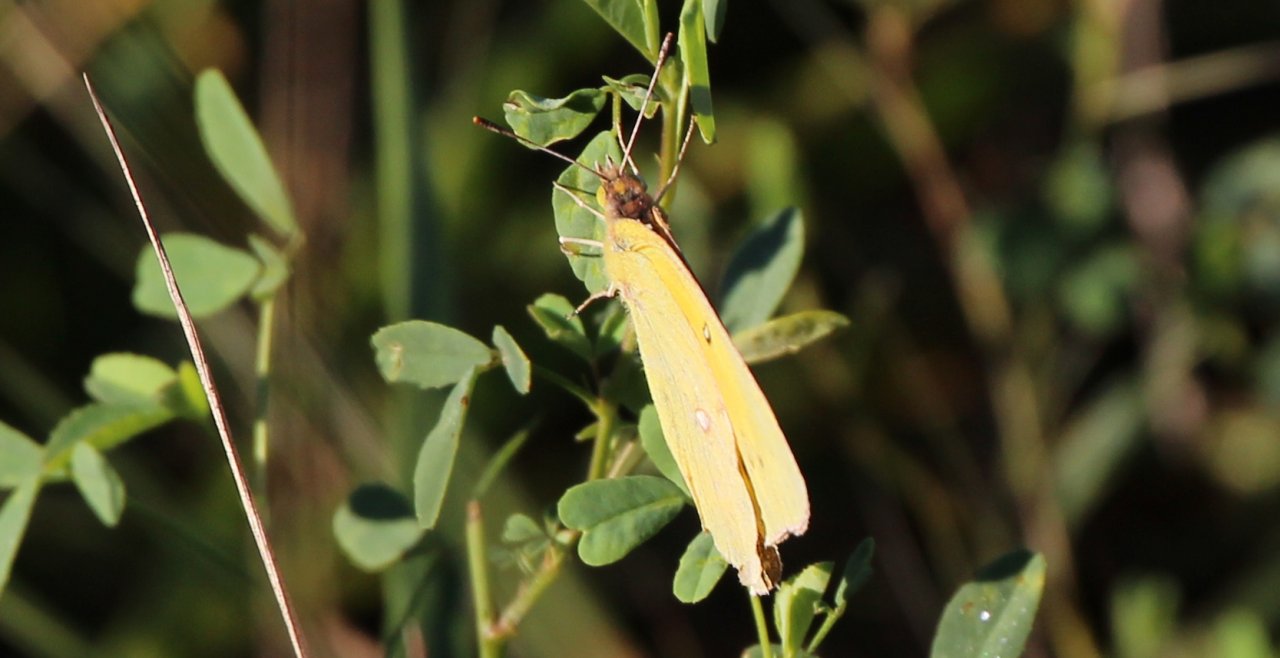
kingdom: Animalia
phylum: Arthropoda
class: Insecta
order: Lepidoptera
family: Pieridae
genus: Phoebis
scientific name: Phoebis sennae
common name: Cloudless Sulphur
